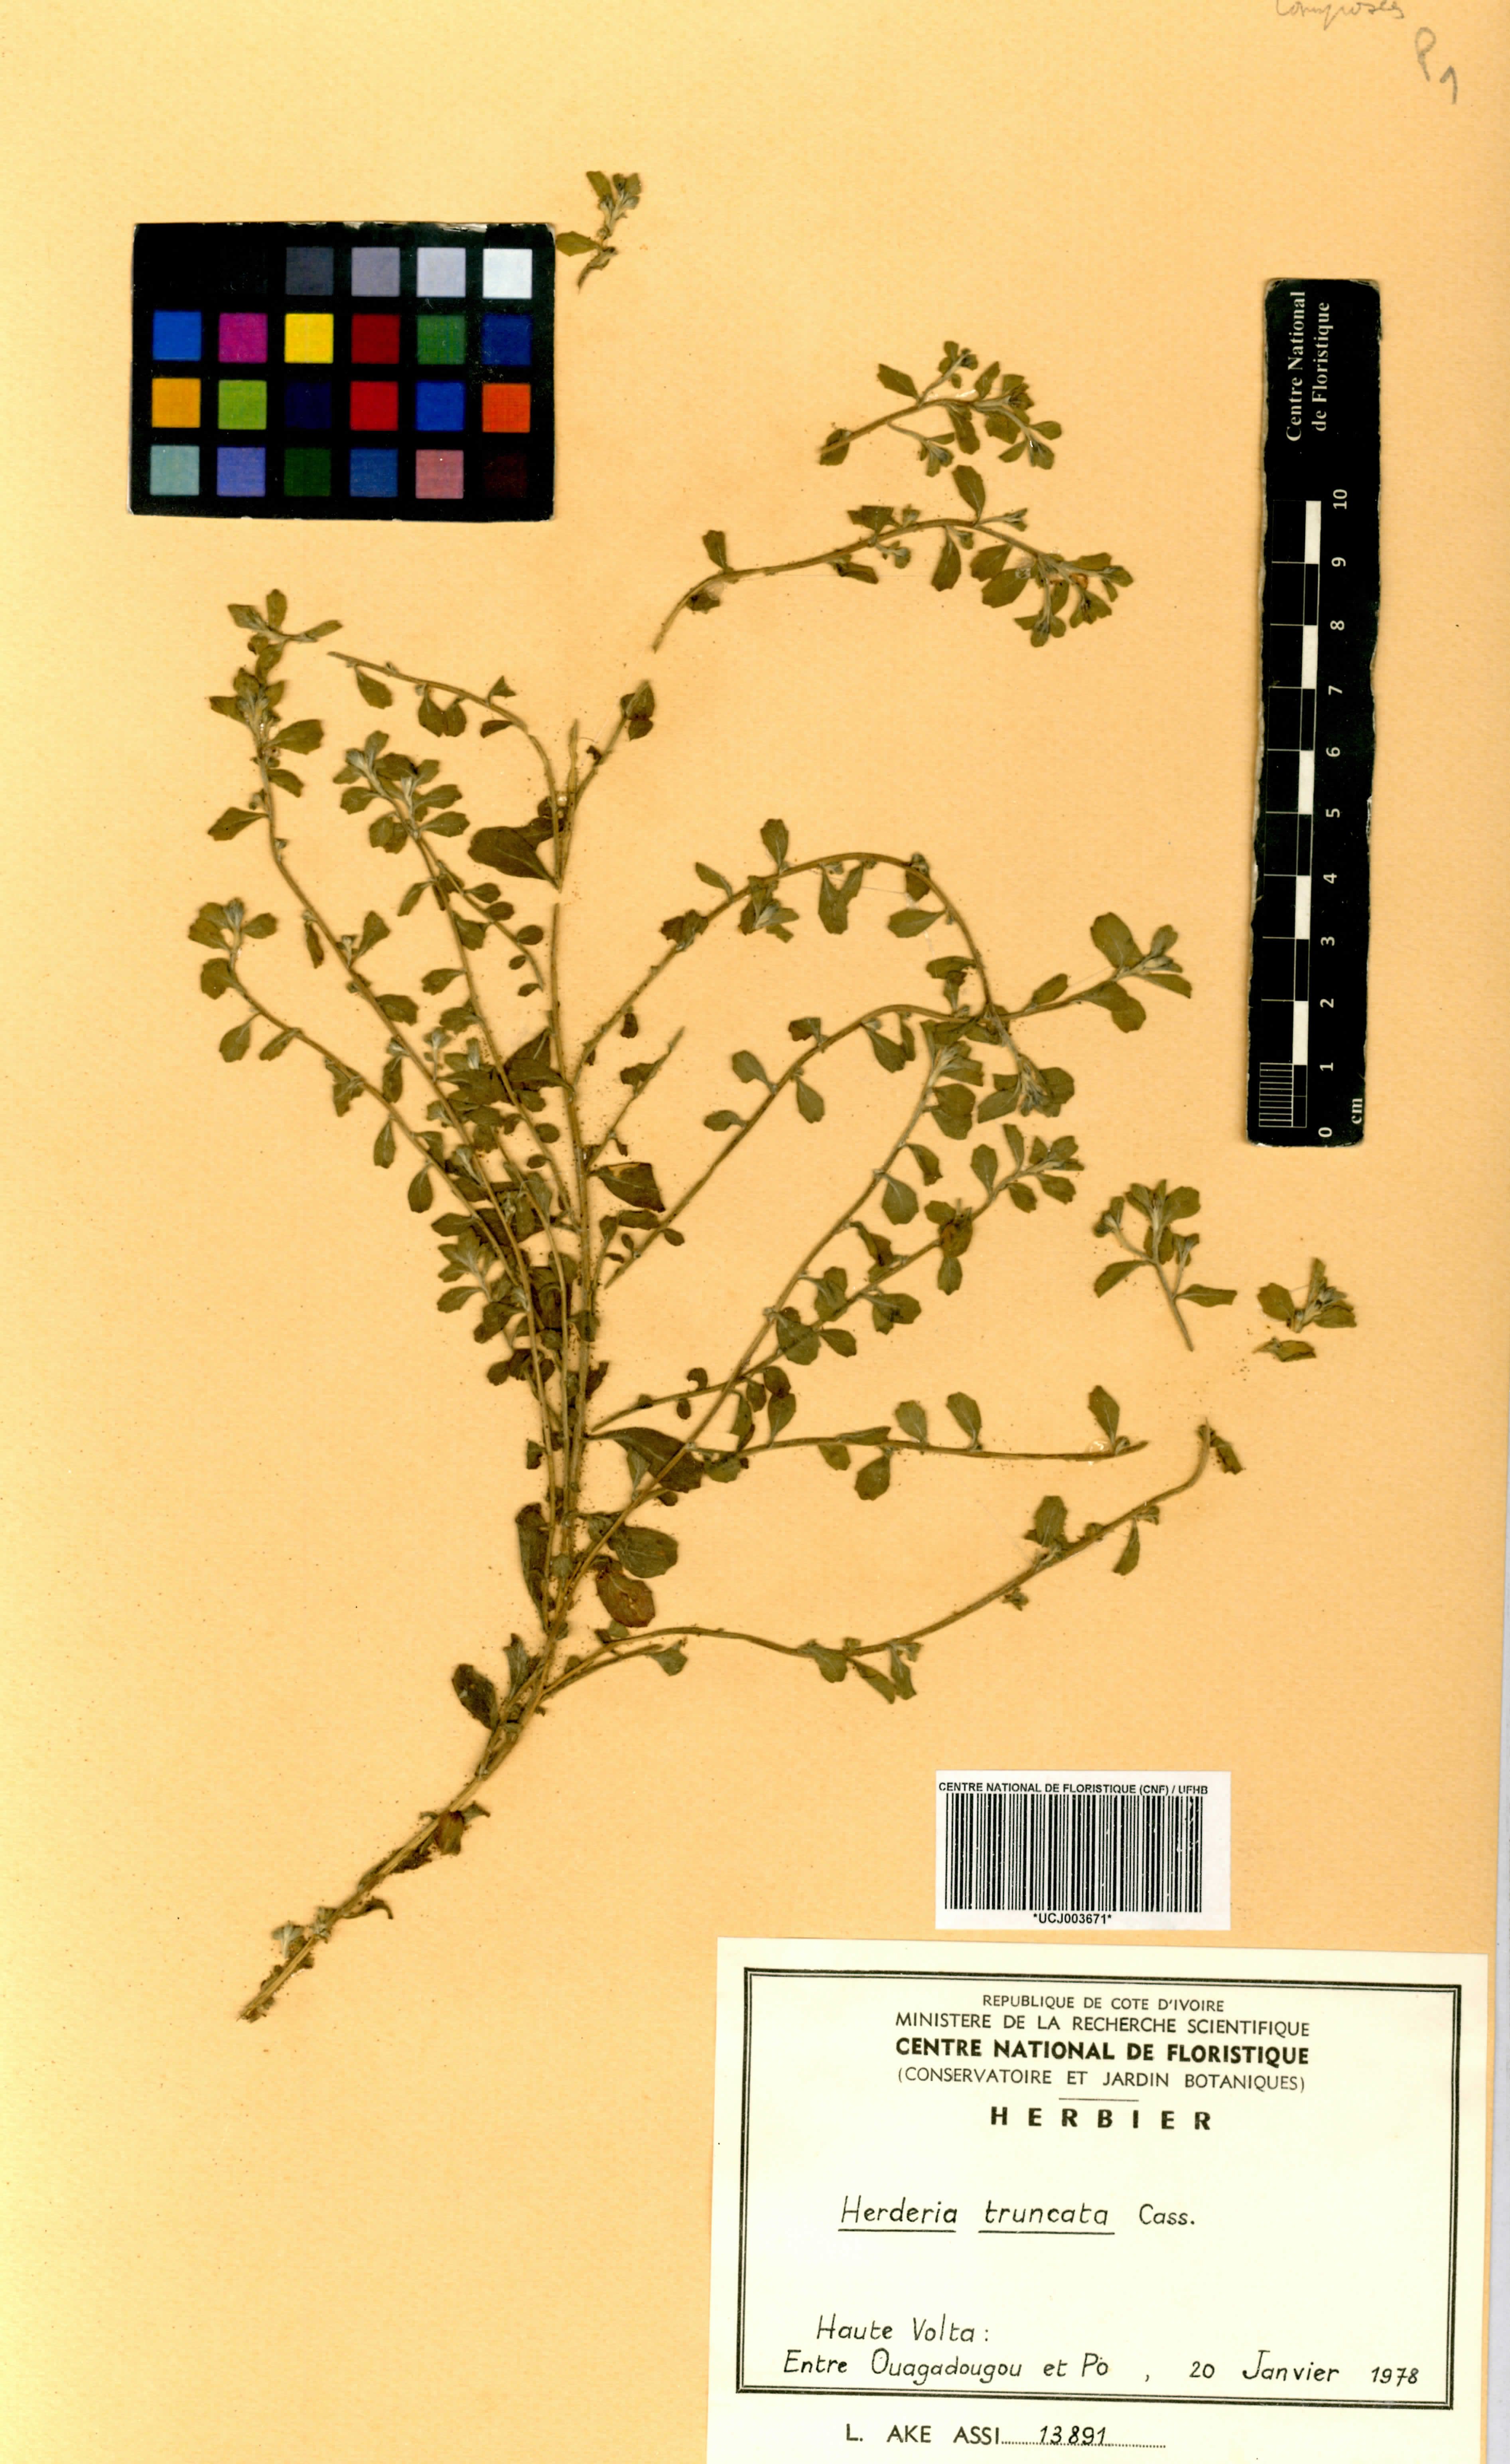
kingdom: Plantae
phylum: Tracheophyta
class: Magnoliopsida
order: Asterales
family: Asteraceae
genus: Herderia
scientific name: Herderia truncata
